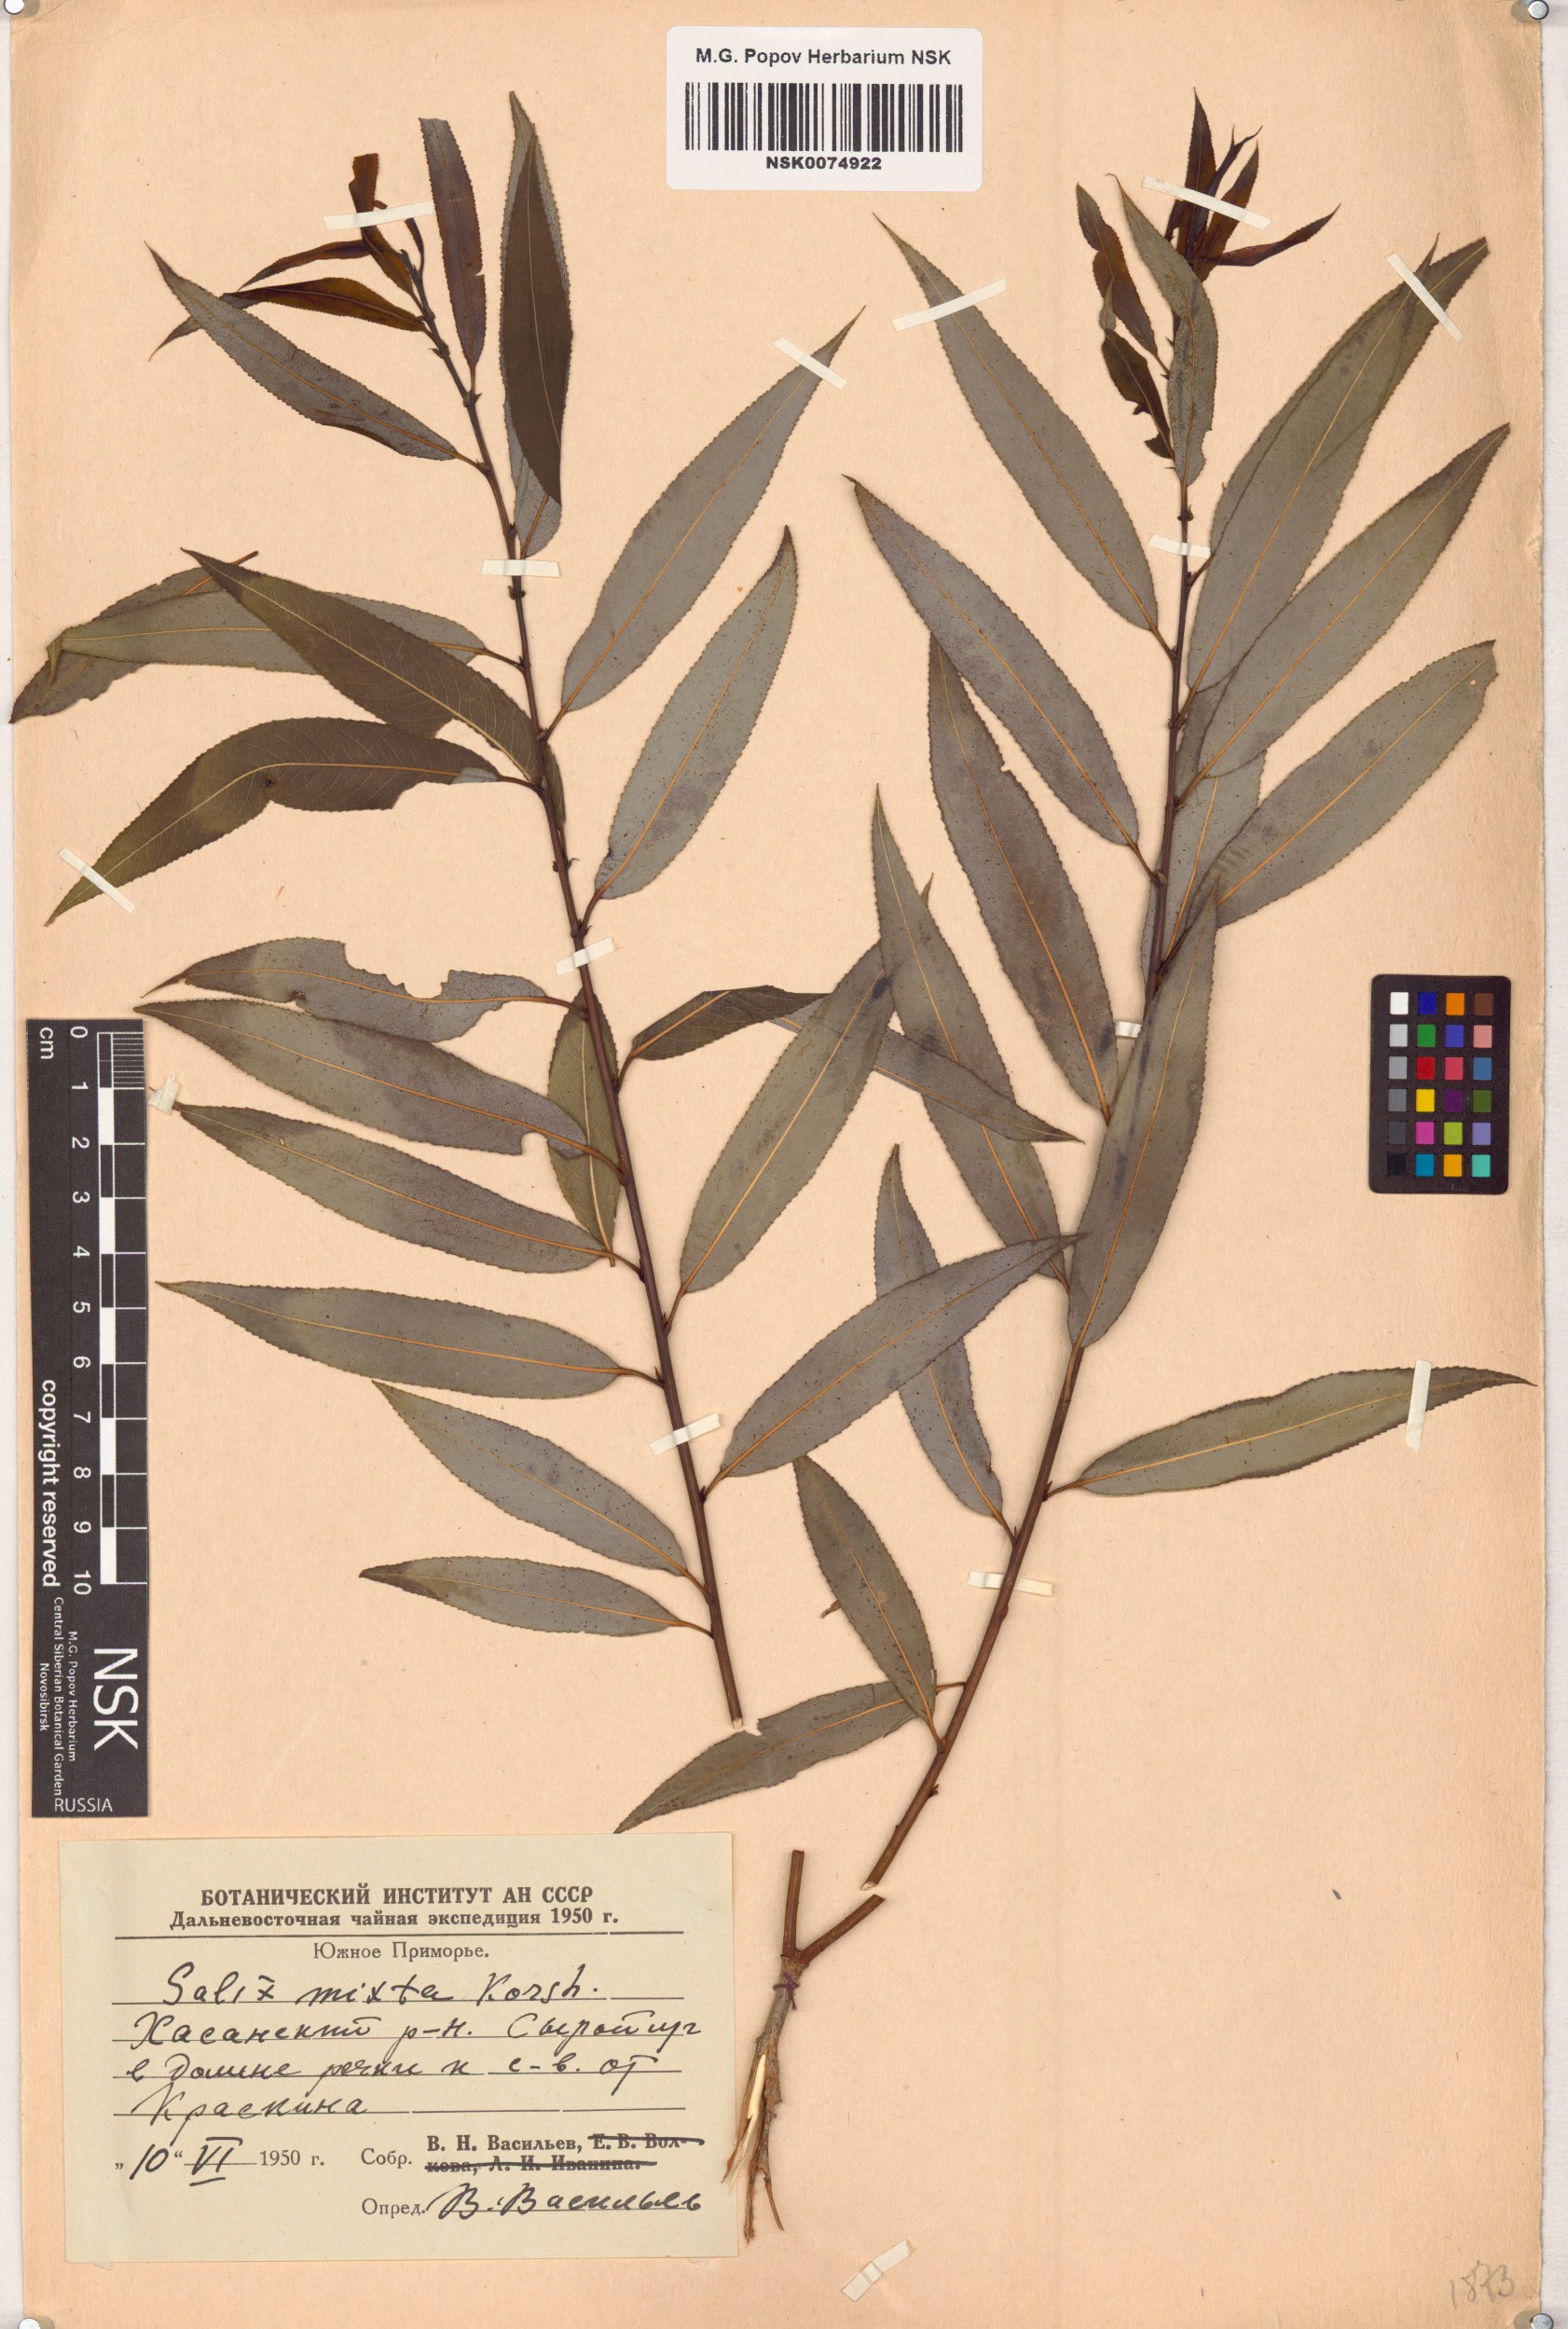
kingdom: Plantae
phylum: Tracheophyta
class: Magnoliopsida
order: Malpighiales
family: Salicaceae
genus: Salix
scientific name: Salix mixta
